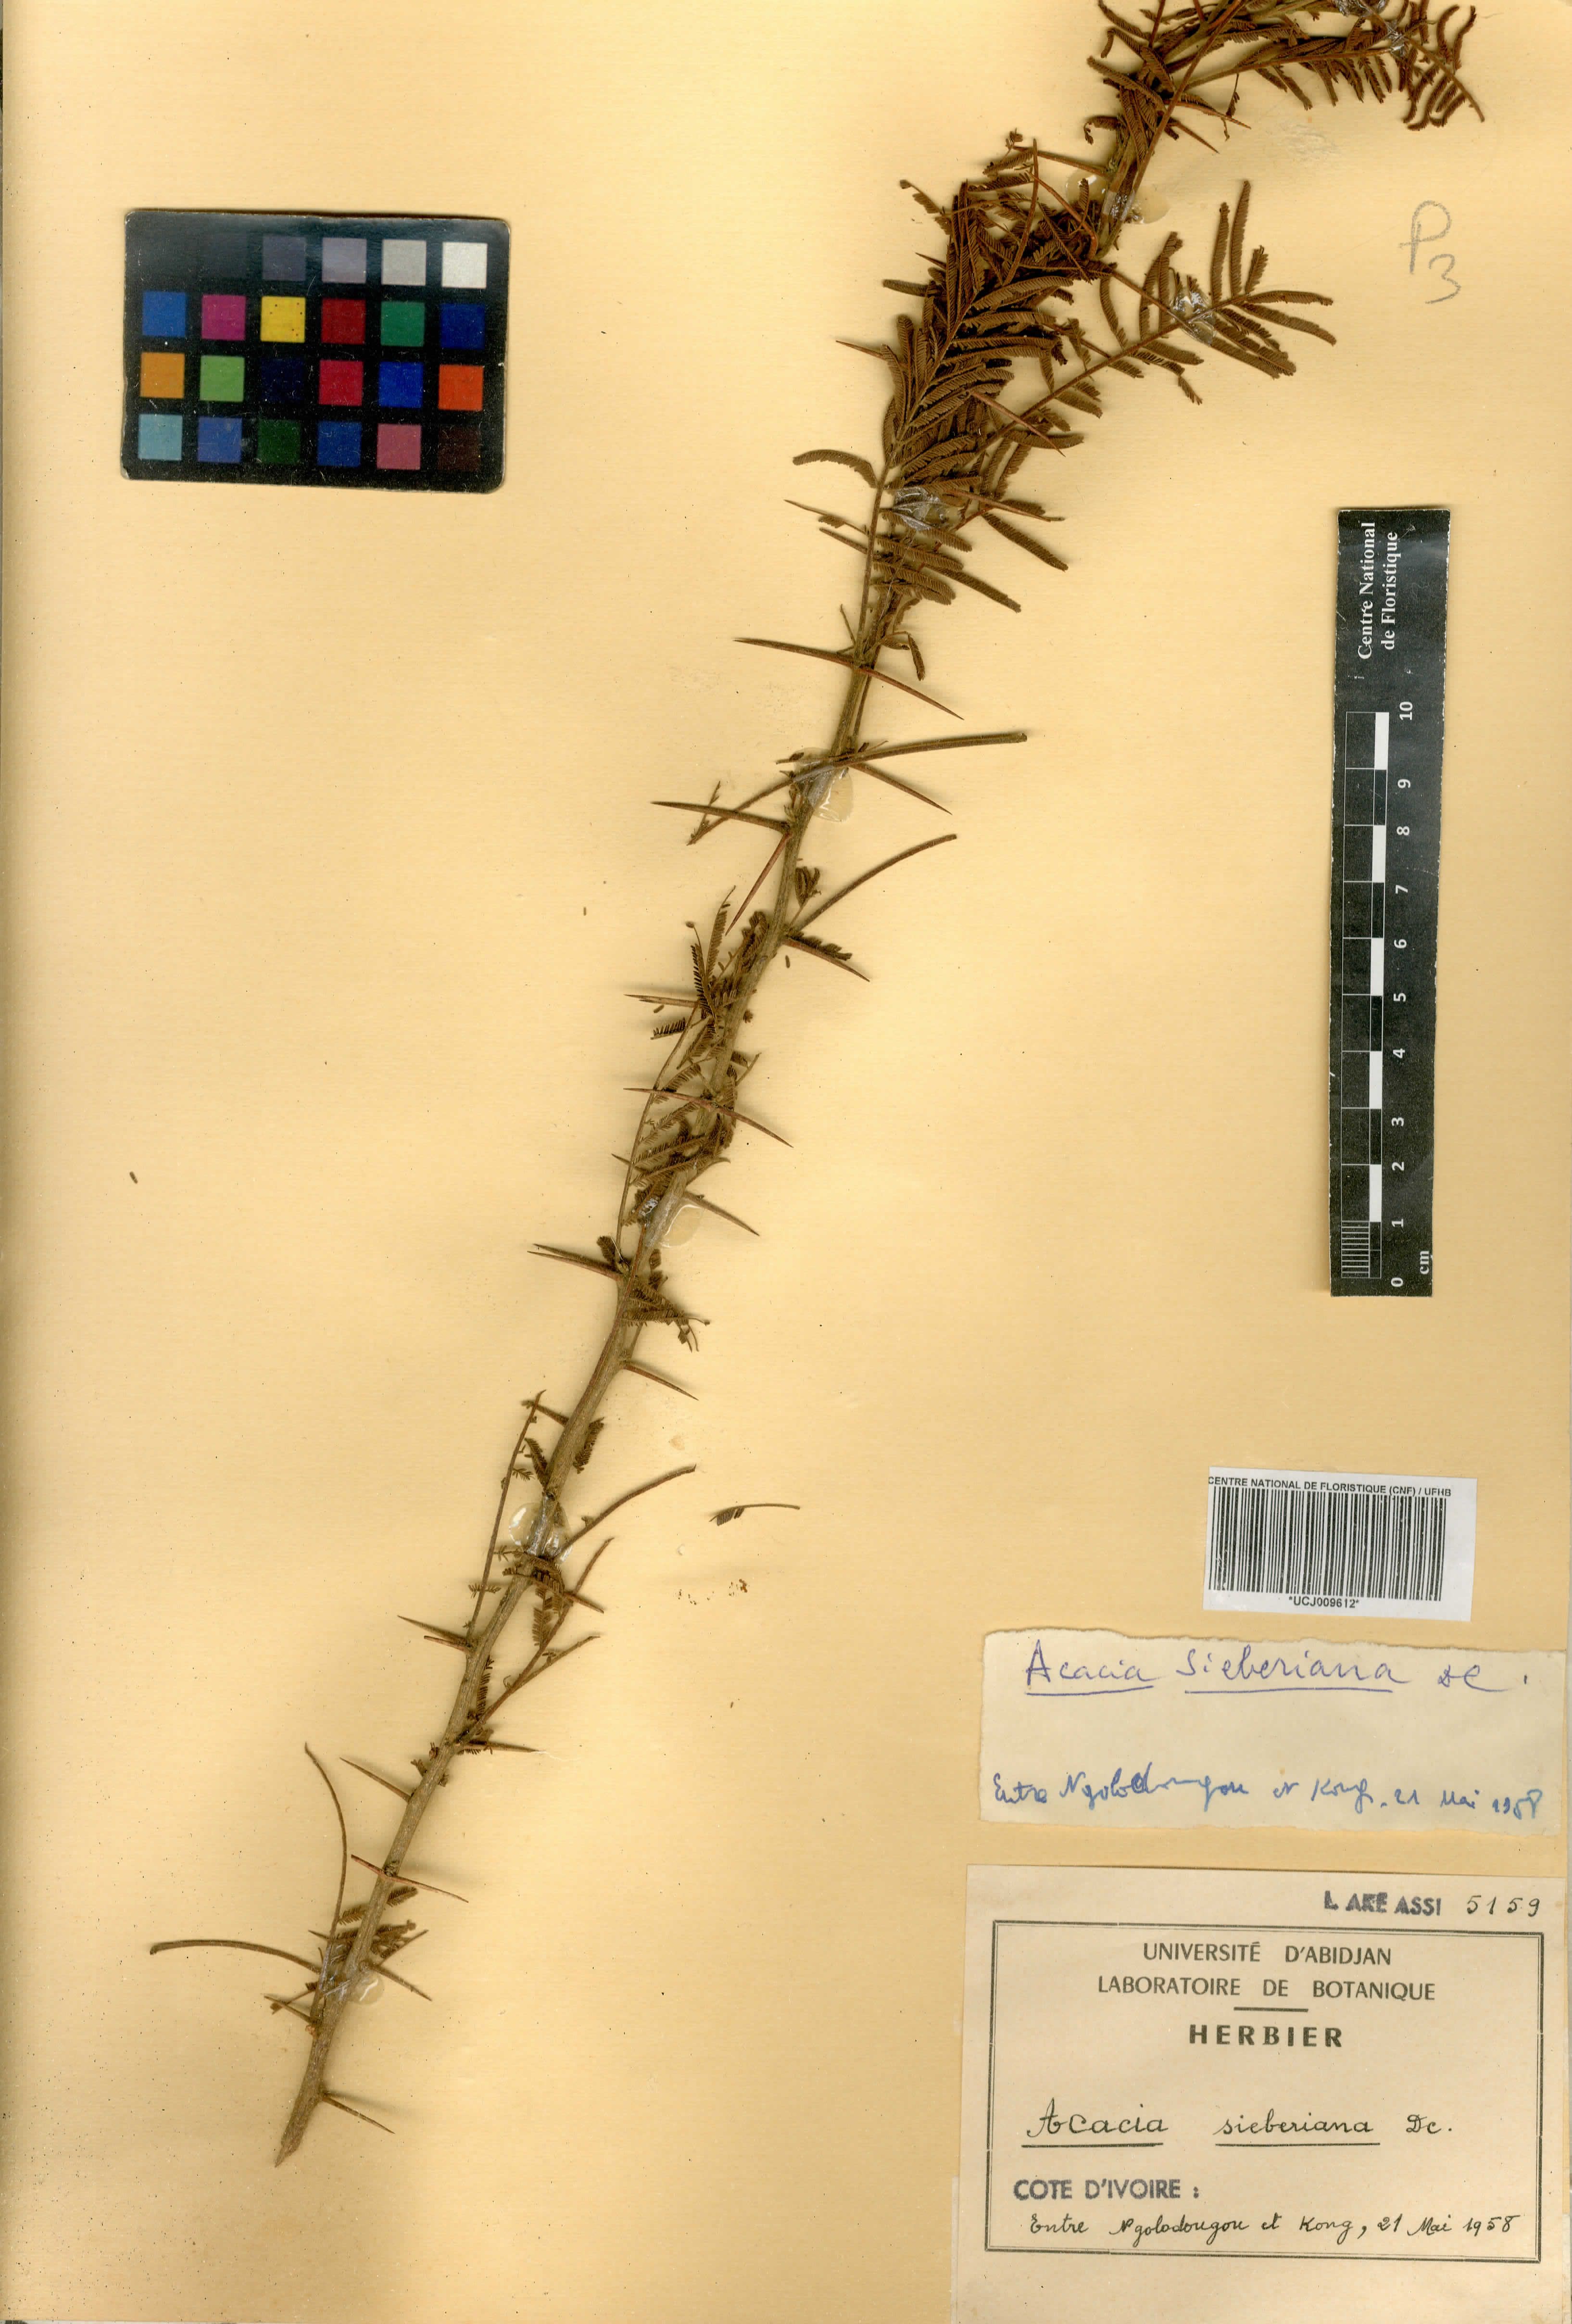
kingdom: Plantae
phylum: Tracheophyta
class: Magnoliopsida
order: Fabales
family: Fabaceae
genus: Vachellia
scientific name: Vachellia sieberiana
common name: Flat-topped thorn
